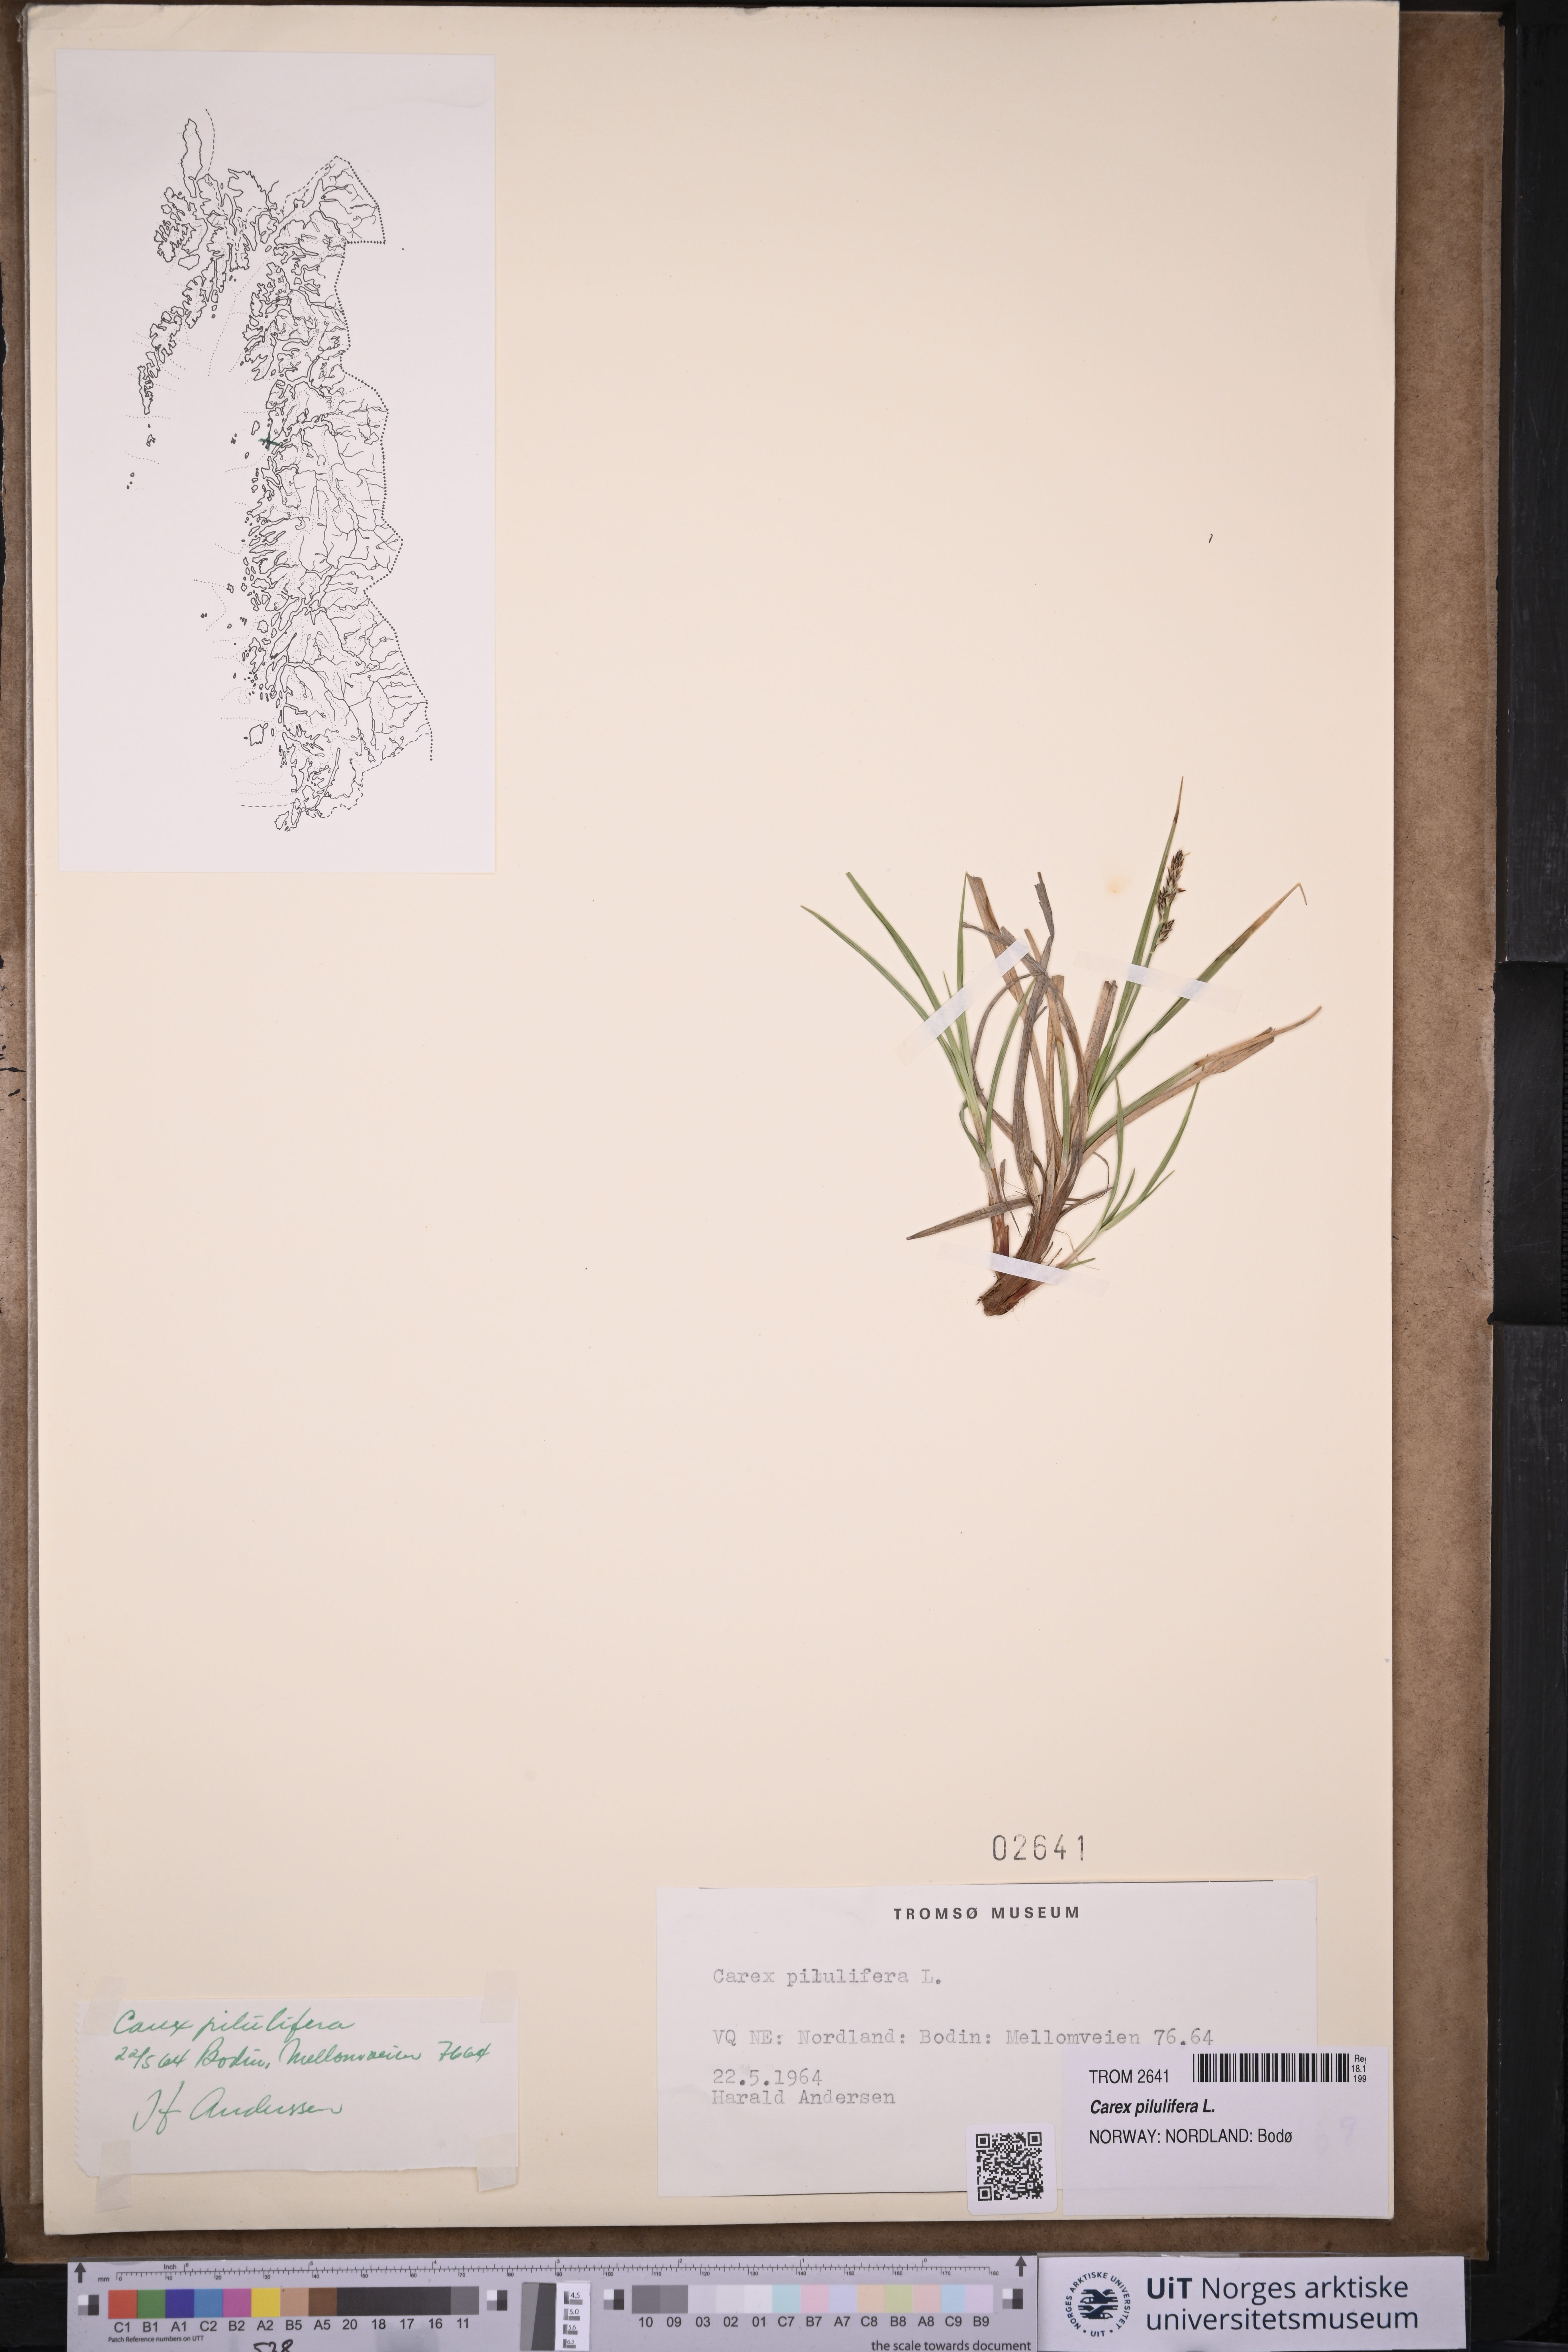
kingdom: Plantae
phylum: Tracheophyta
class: Liliopsida
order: Poales
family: Cyperaceae
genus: Carex
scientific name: Carex pilulifera
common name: Pill sedge
